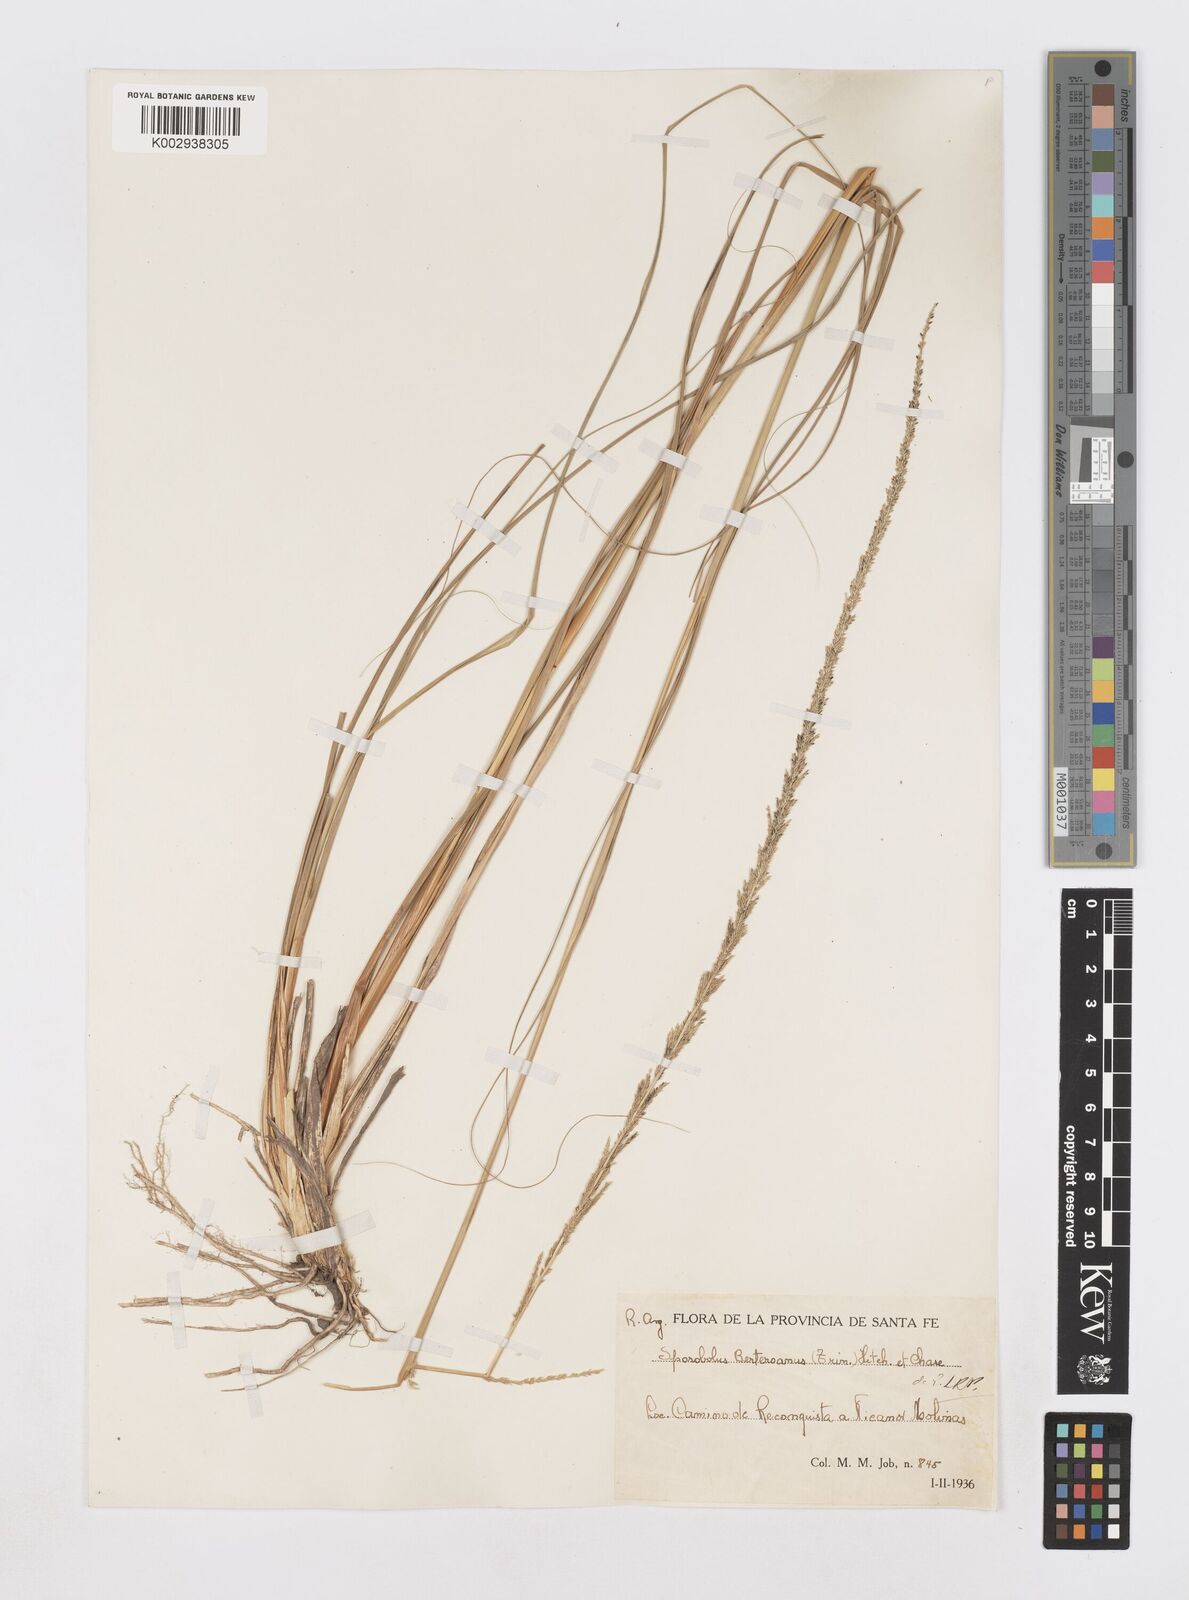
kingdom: Plantae
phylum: Tracheophyta
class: Liliopsida
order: Poales
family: Poaceae
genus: Sporobolus
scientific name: Sporobolus indicus
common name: Smut grass
